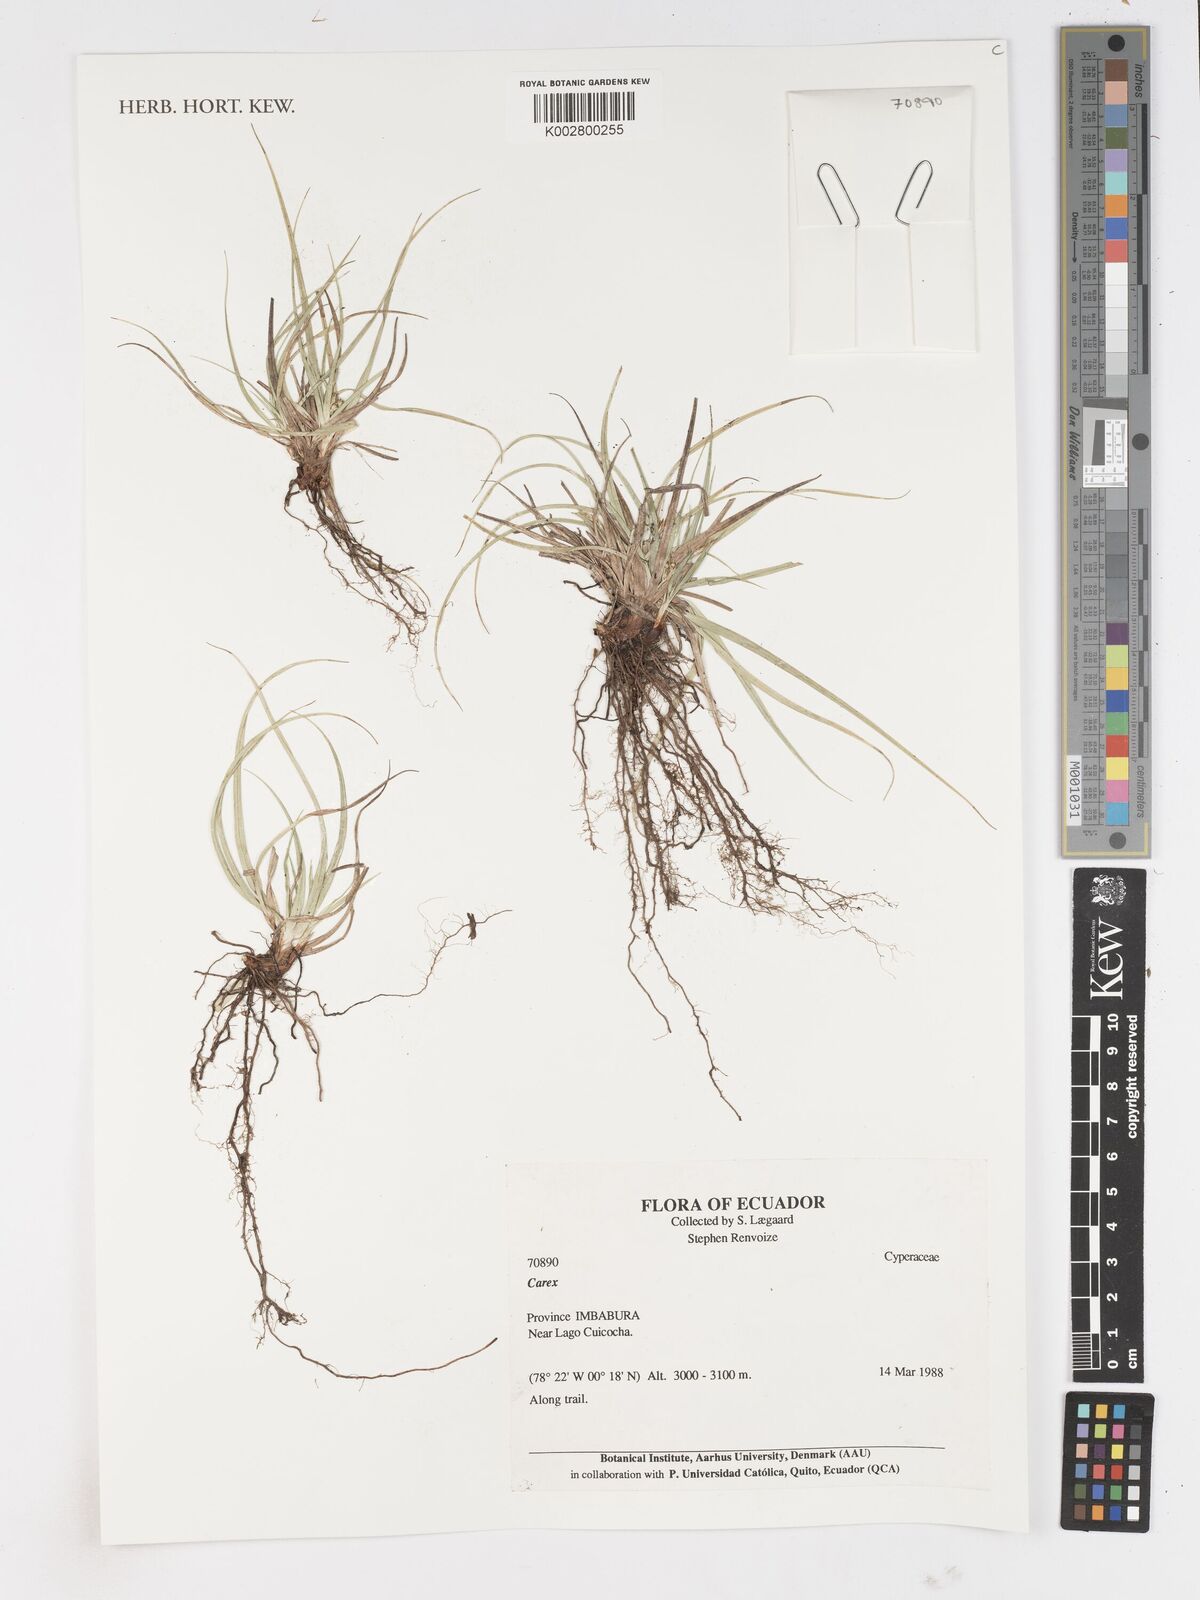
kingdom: Plantae
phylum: Tracheophyta
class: Liliopsida
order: Poales
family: Cyperaceae
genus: Carex
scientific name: Carex
